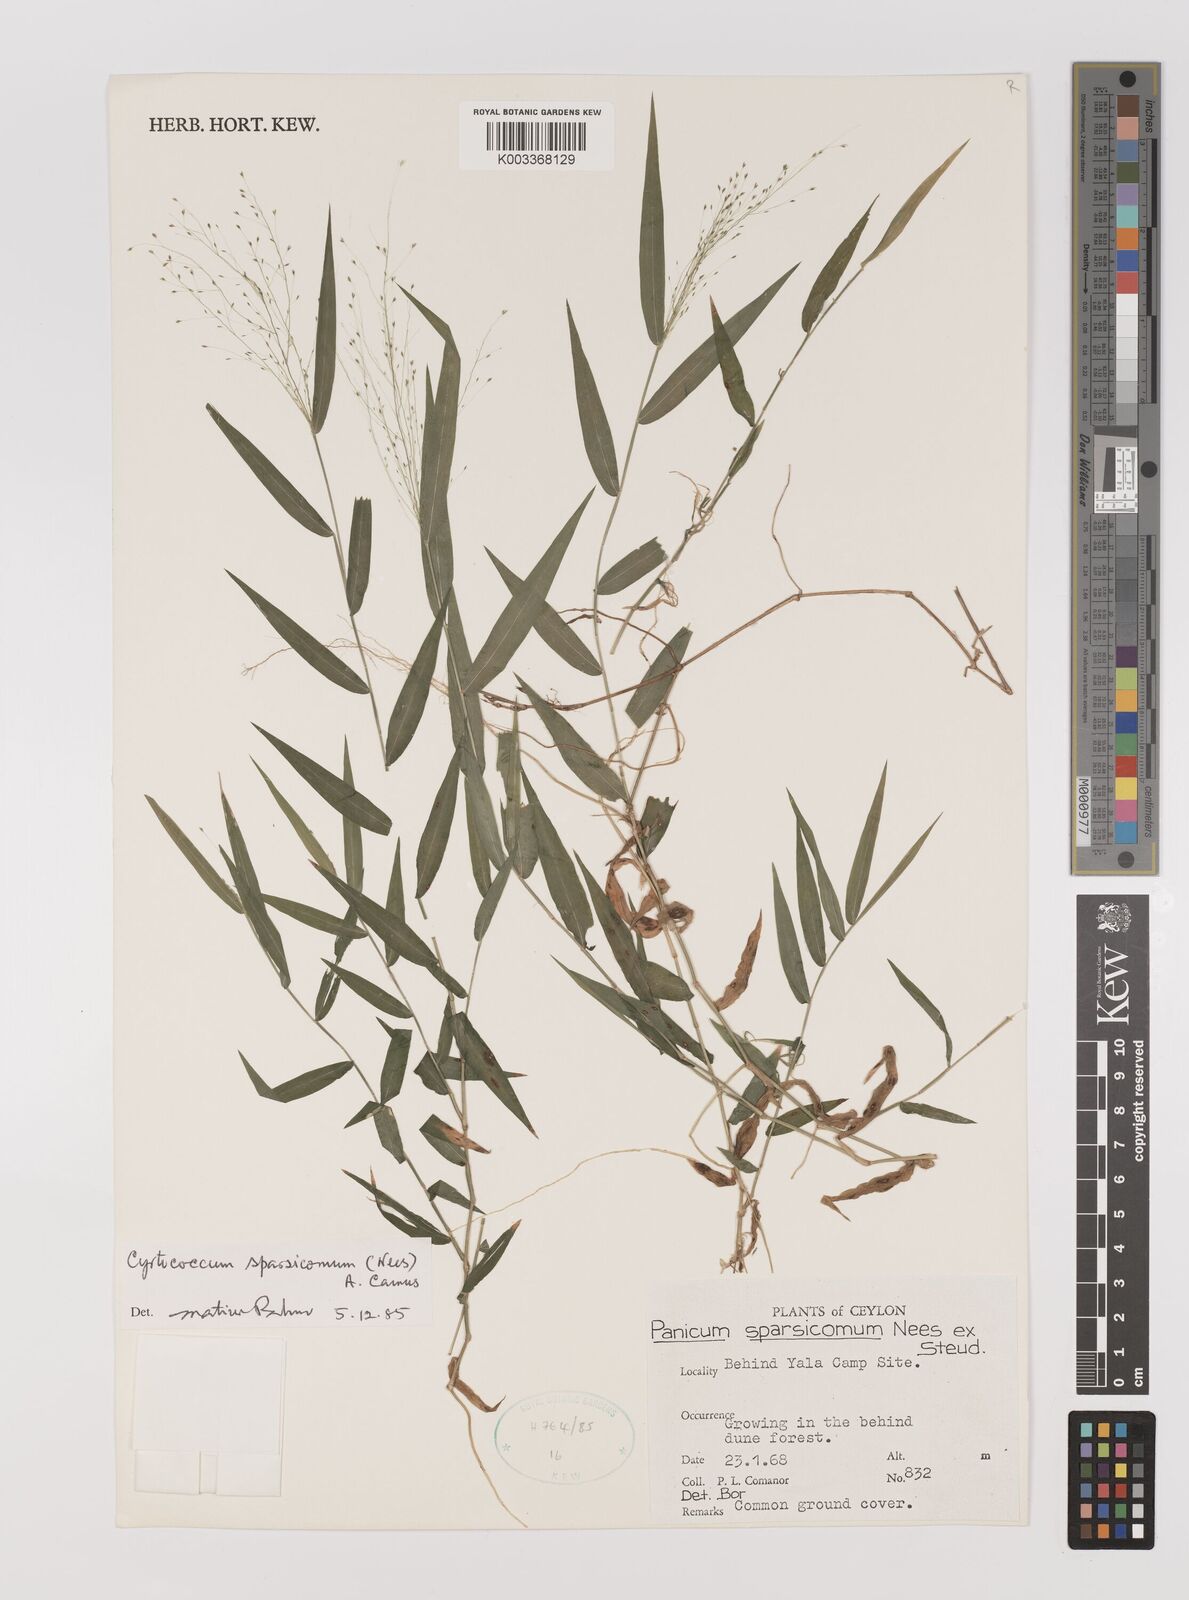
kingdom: Plantae
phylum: Tracheophyta
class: Liliopsida
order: Poales
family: Poaceae
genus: Panicum
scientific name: Panicum sparsicomum
